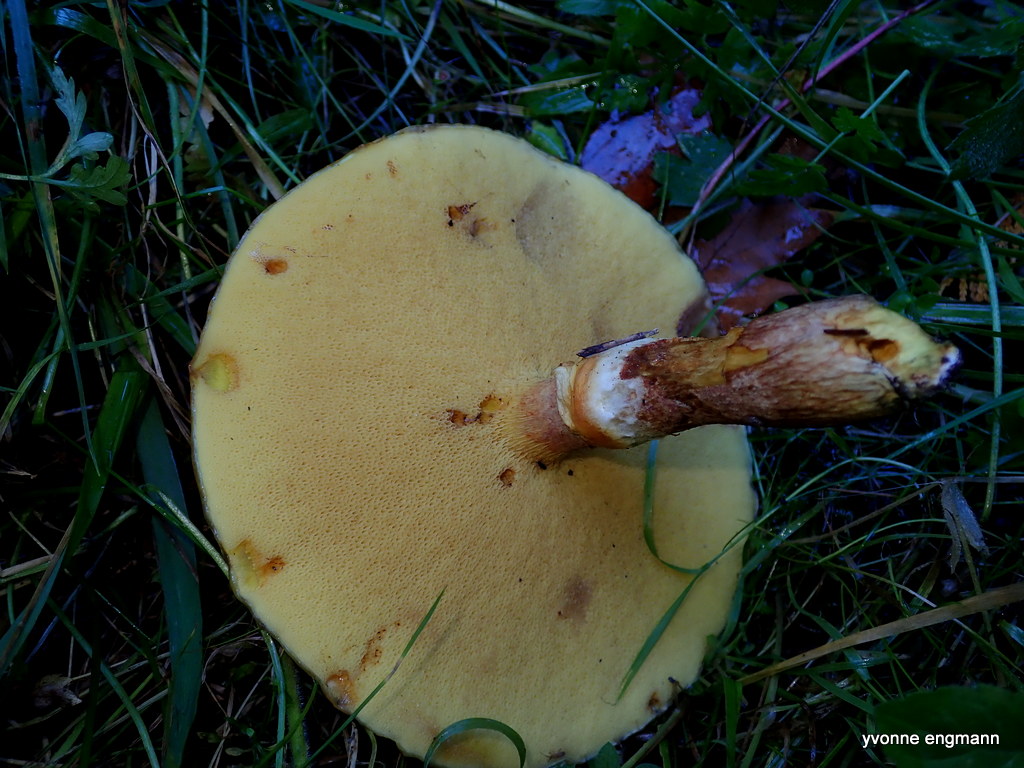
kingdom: Fungi
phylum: Basidiomycota
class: Agaricomycetes
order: Boletales
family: Suillaceae
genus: Suillus
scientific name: Suillus grevillei
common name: lærke-slimrørhat
